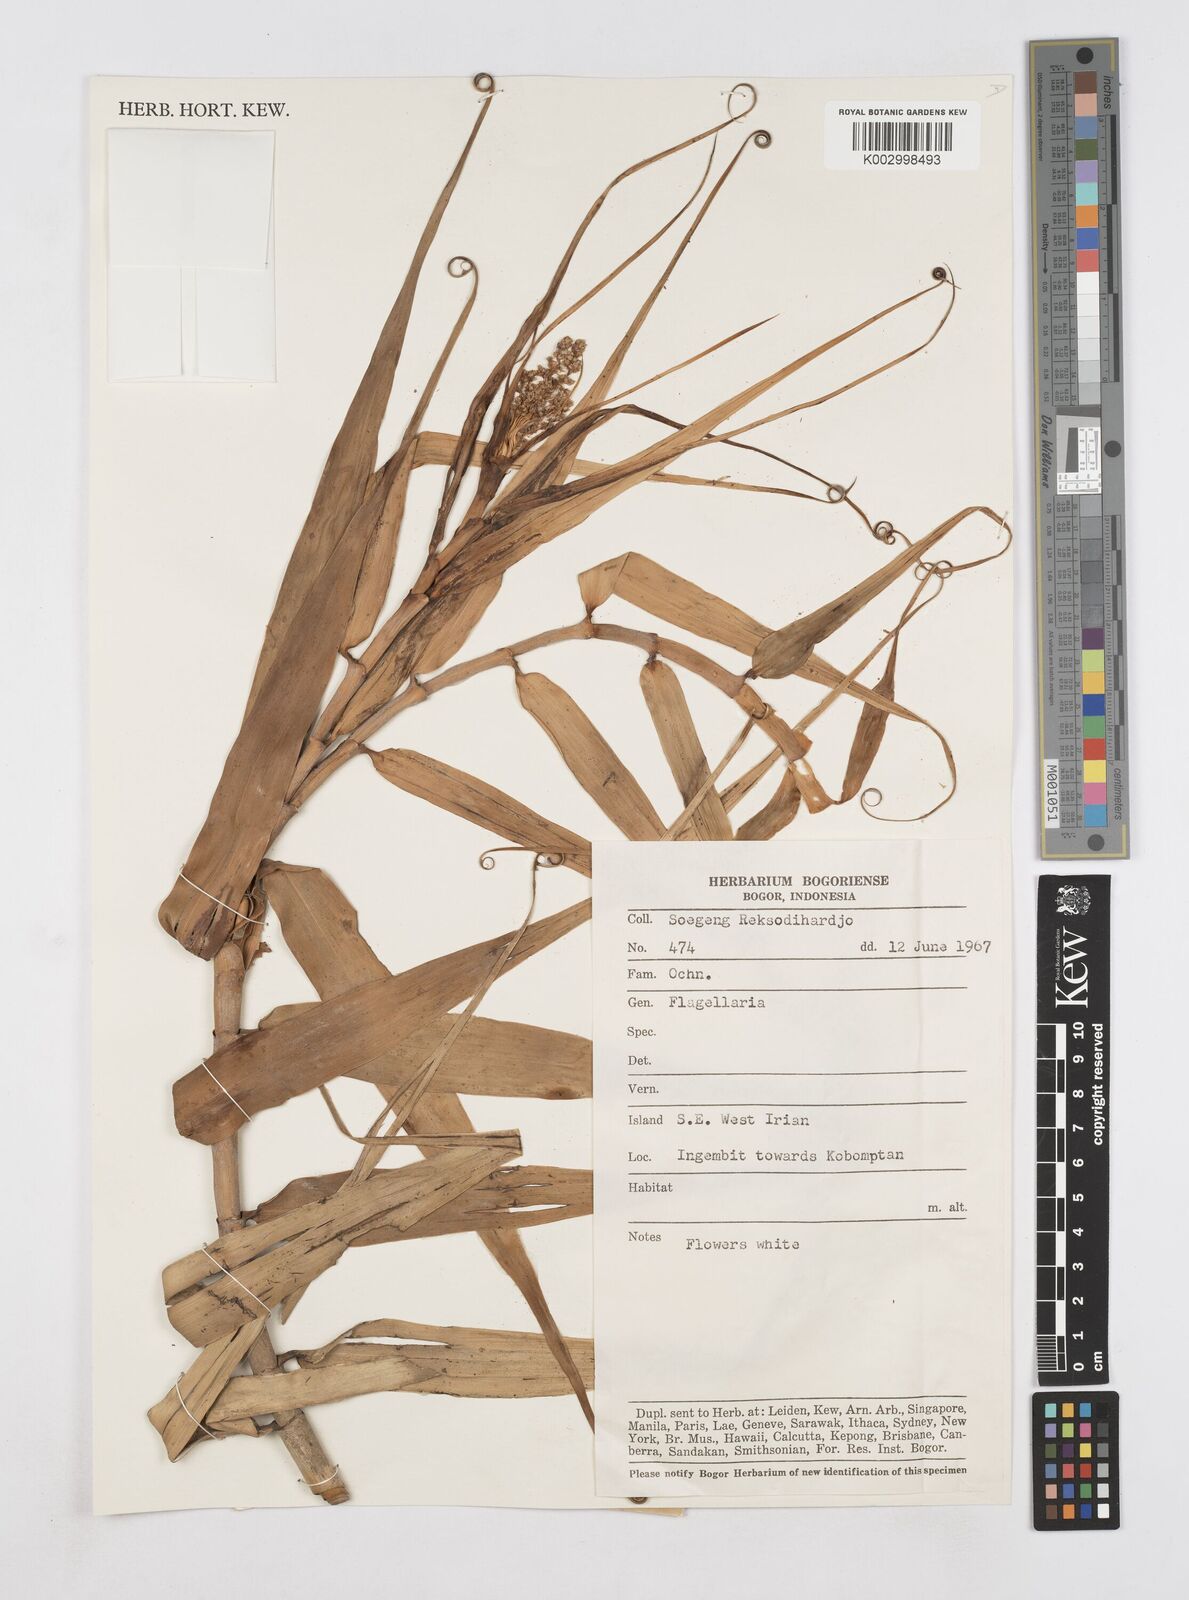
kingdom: Plantae
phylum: Tracheophyta
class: Liliopsida
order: Poales
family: Flagellariaceae
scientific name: Flagellariaceae
